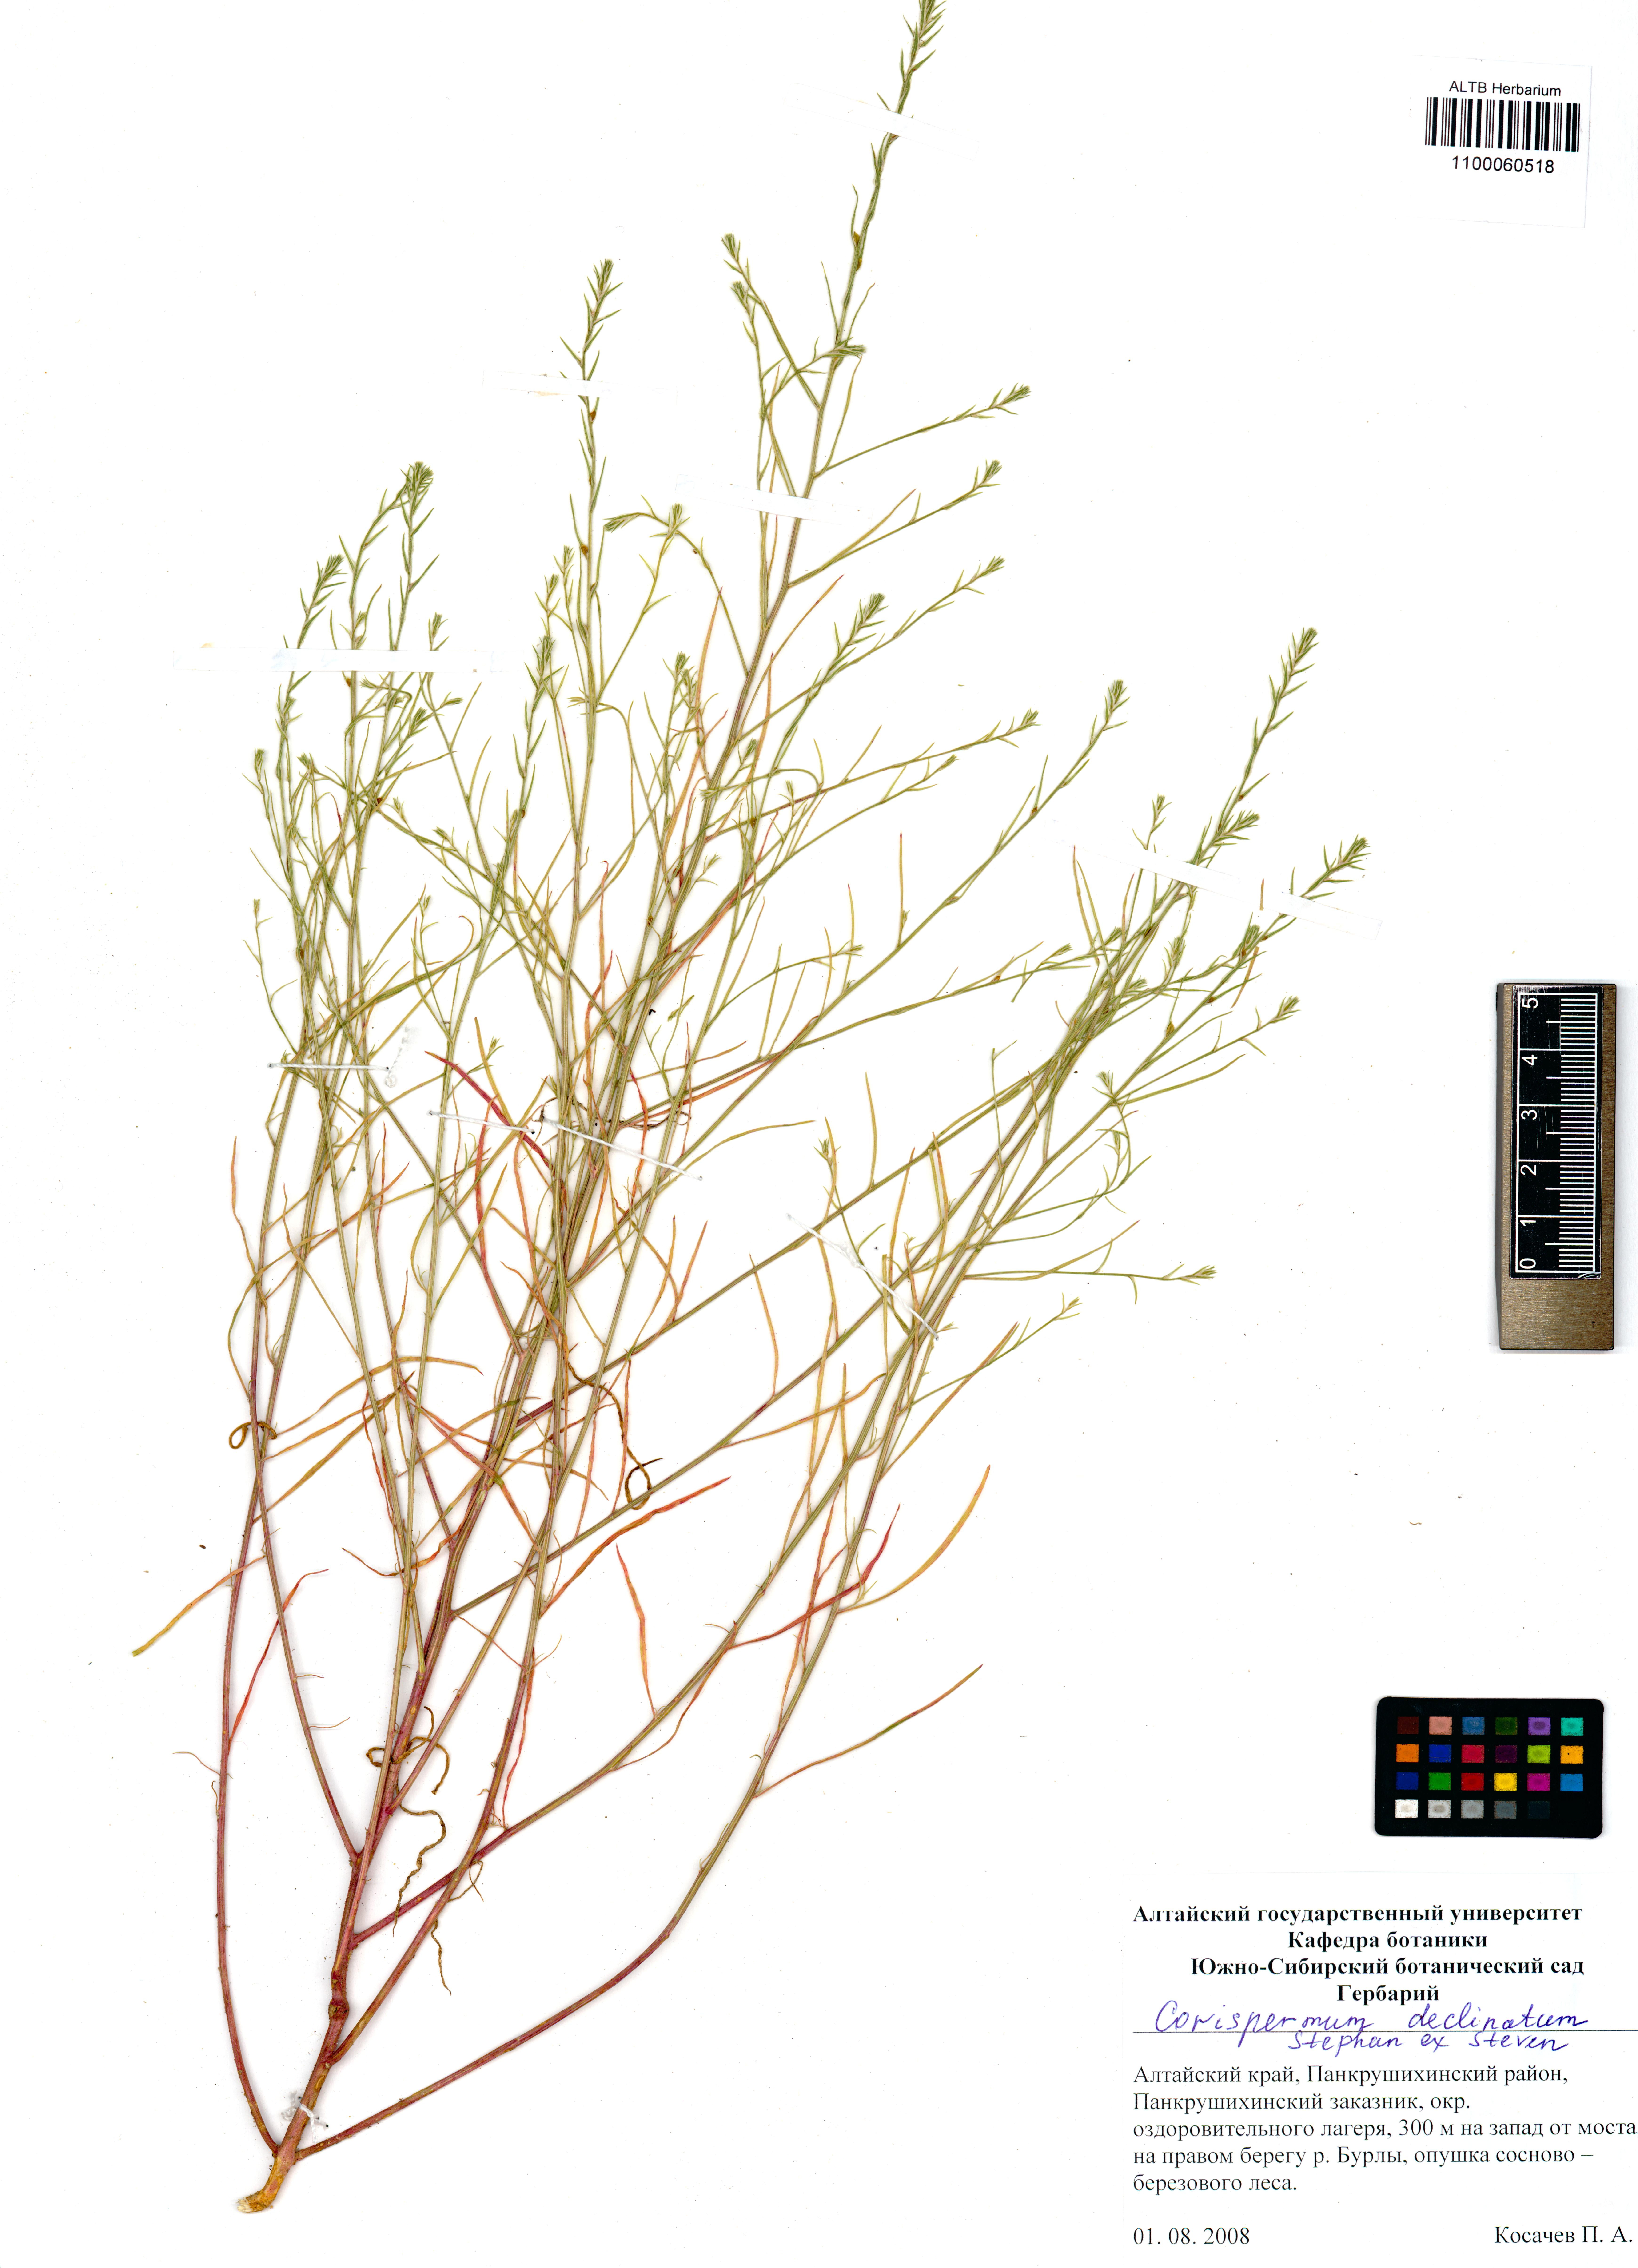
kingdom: Plantae
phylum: Tracheophyta
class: Magnoliopsida
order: Caryophyllales
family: Amaranthaceae
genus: Corispermum
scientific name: Corispermum declinatum
